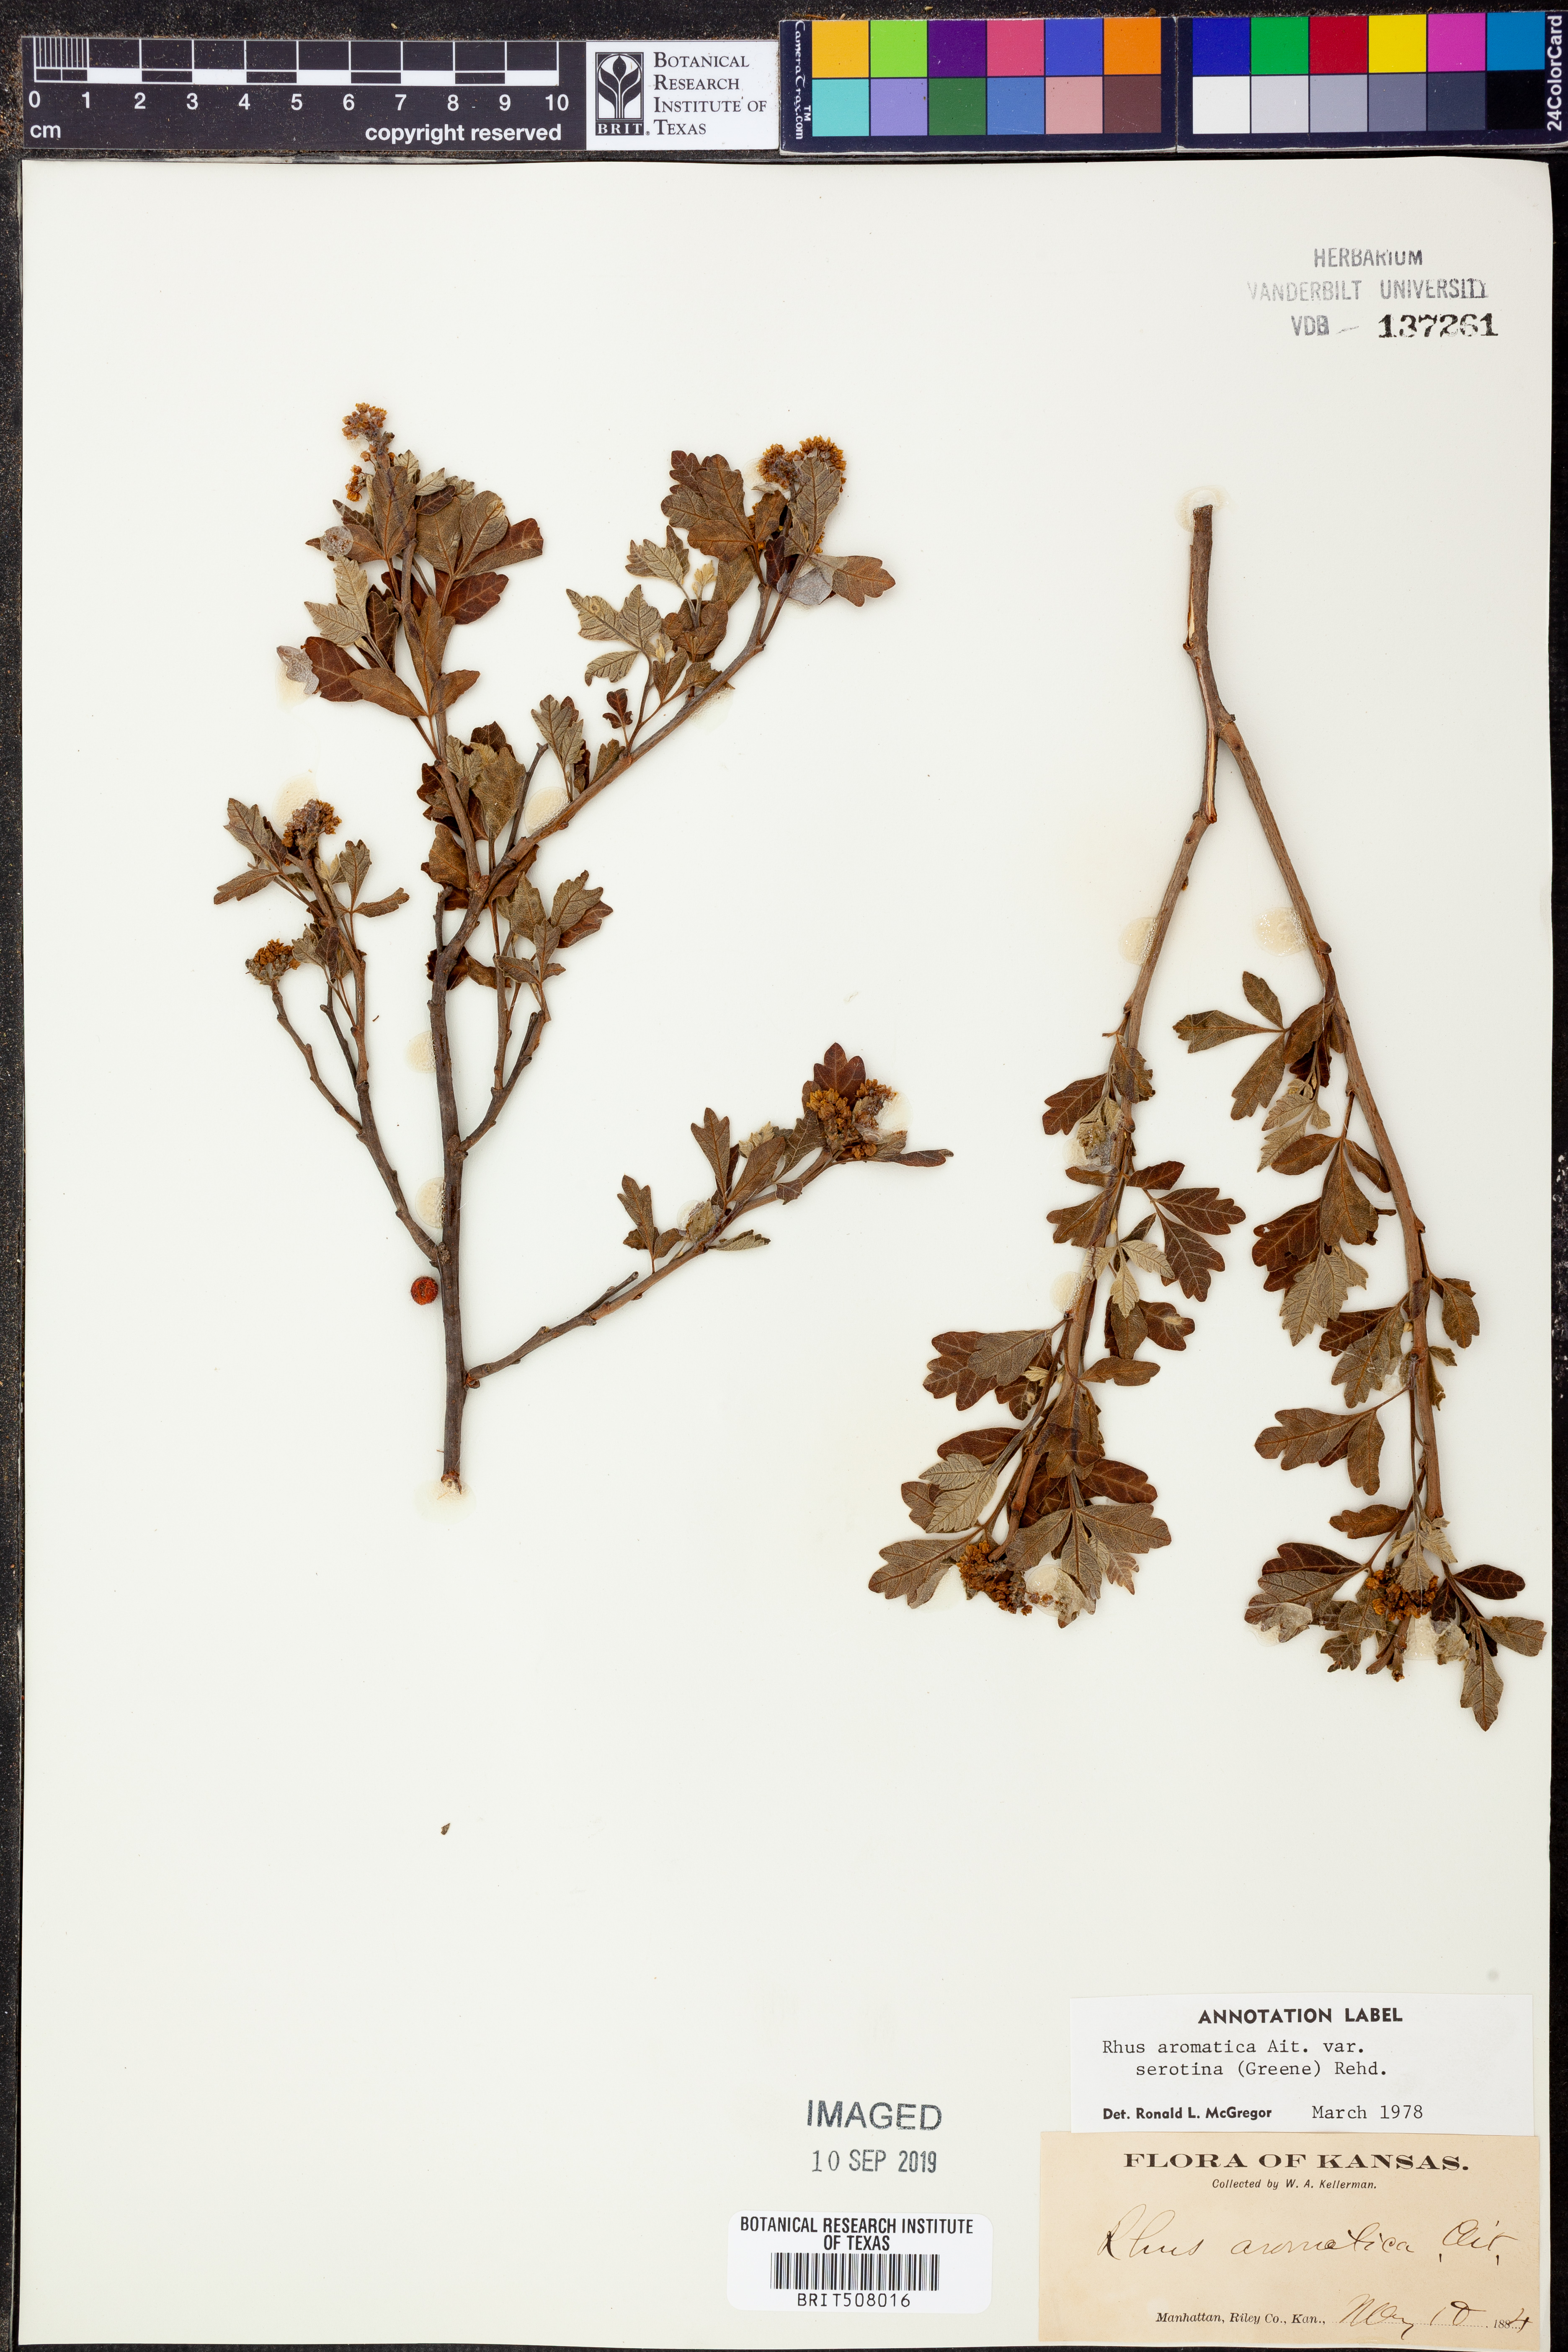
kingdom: Plantae
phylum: Tracheophyta
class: Magnoliopsida
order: Sapindales
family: Anacardiaceae
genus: Rhus
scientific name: Rhus aromatica
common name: Aromatic sumac
